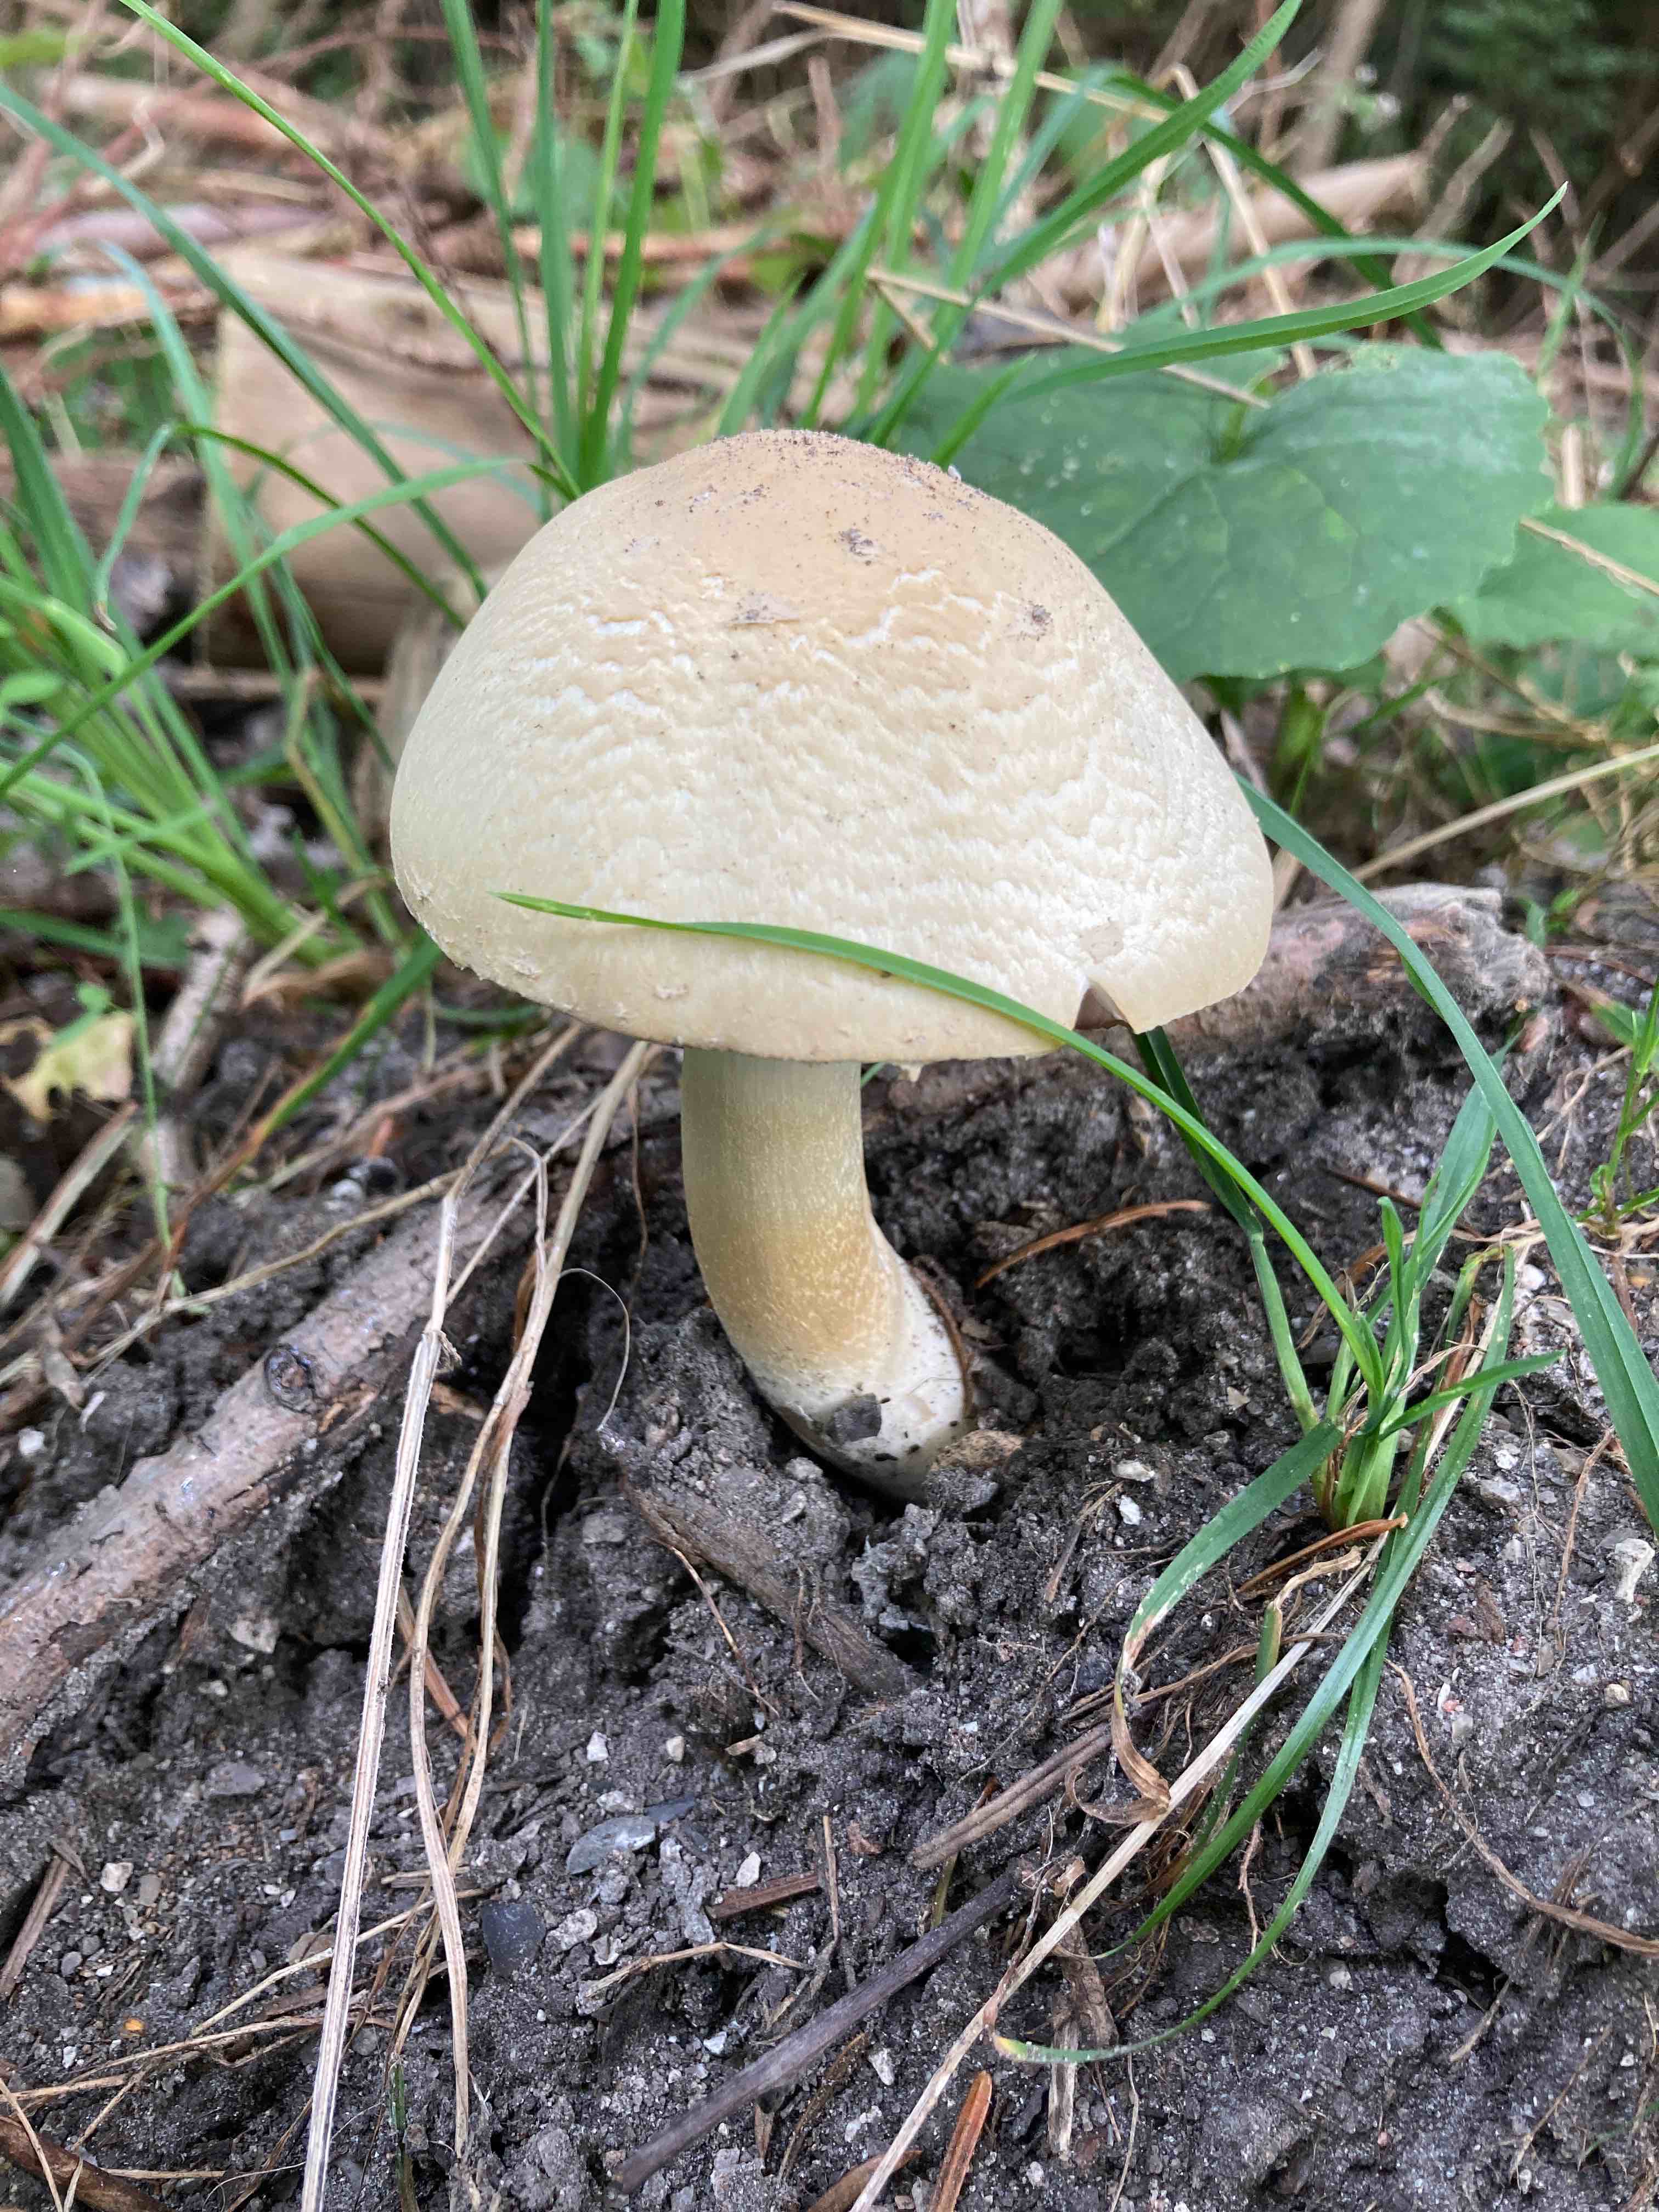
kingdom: Fungi
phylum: Basidiomycota
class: Agaricomycetes
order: Agaricales
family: Agaricaceae
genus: Agaricus
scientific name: Agaricus
